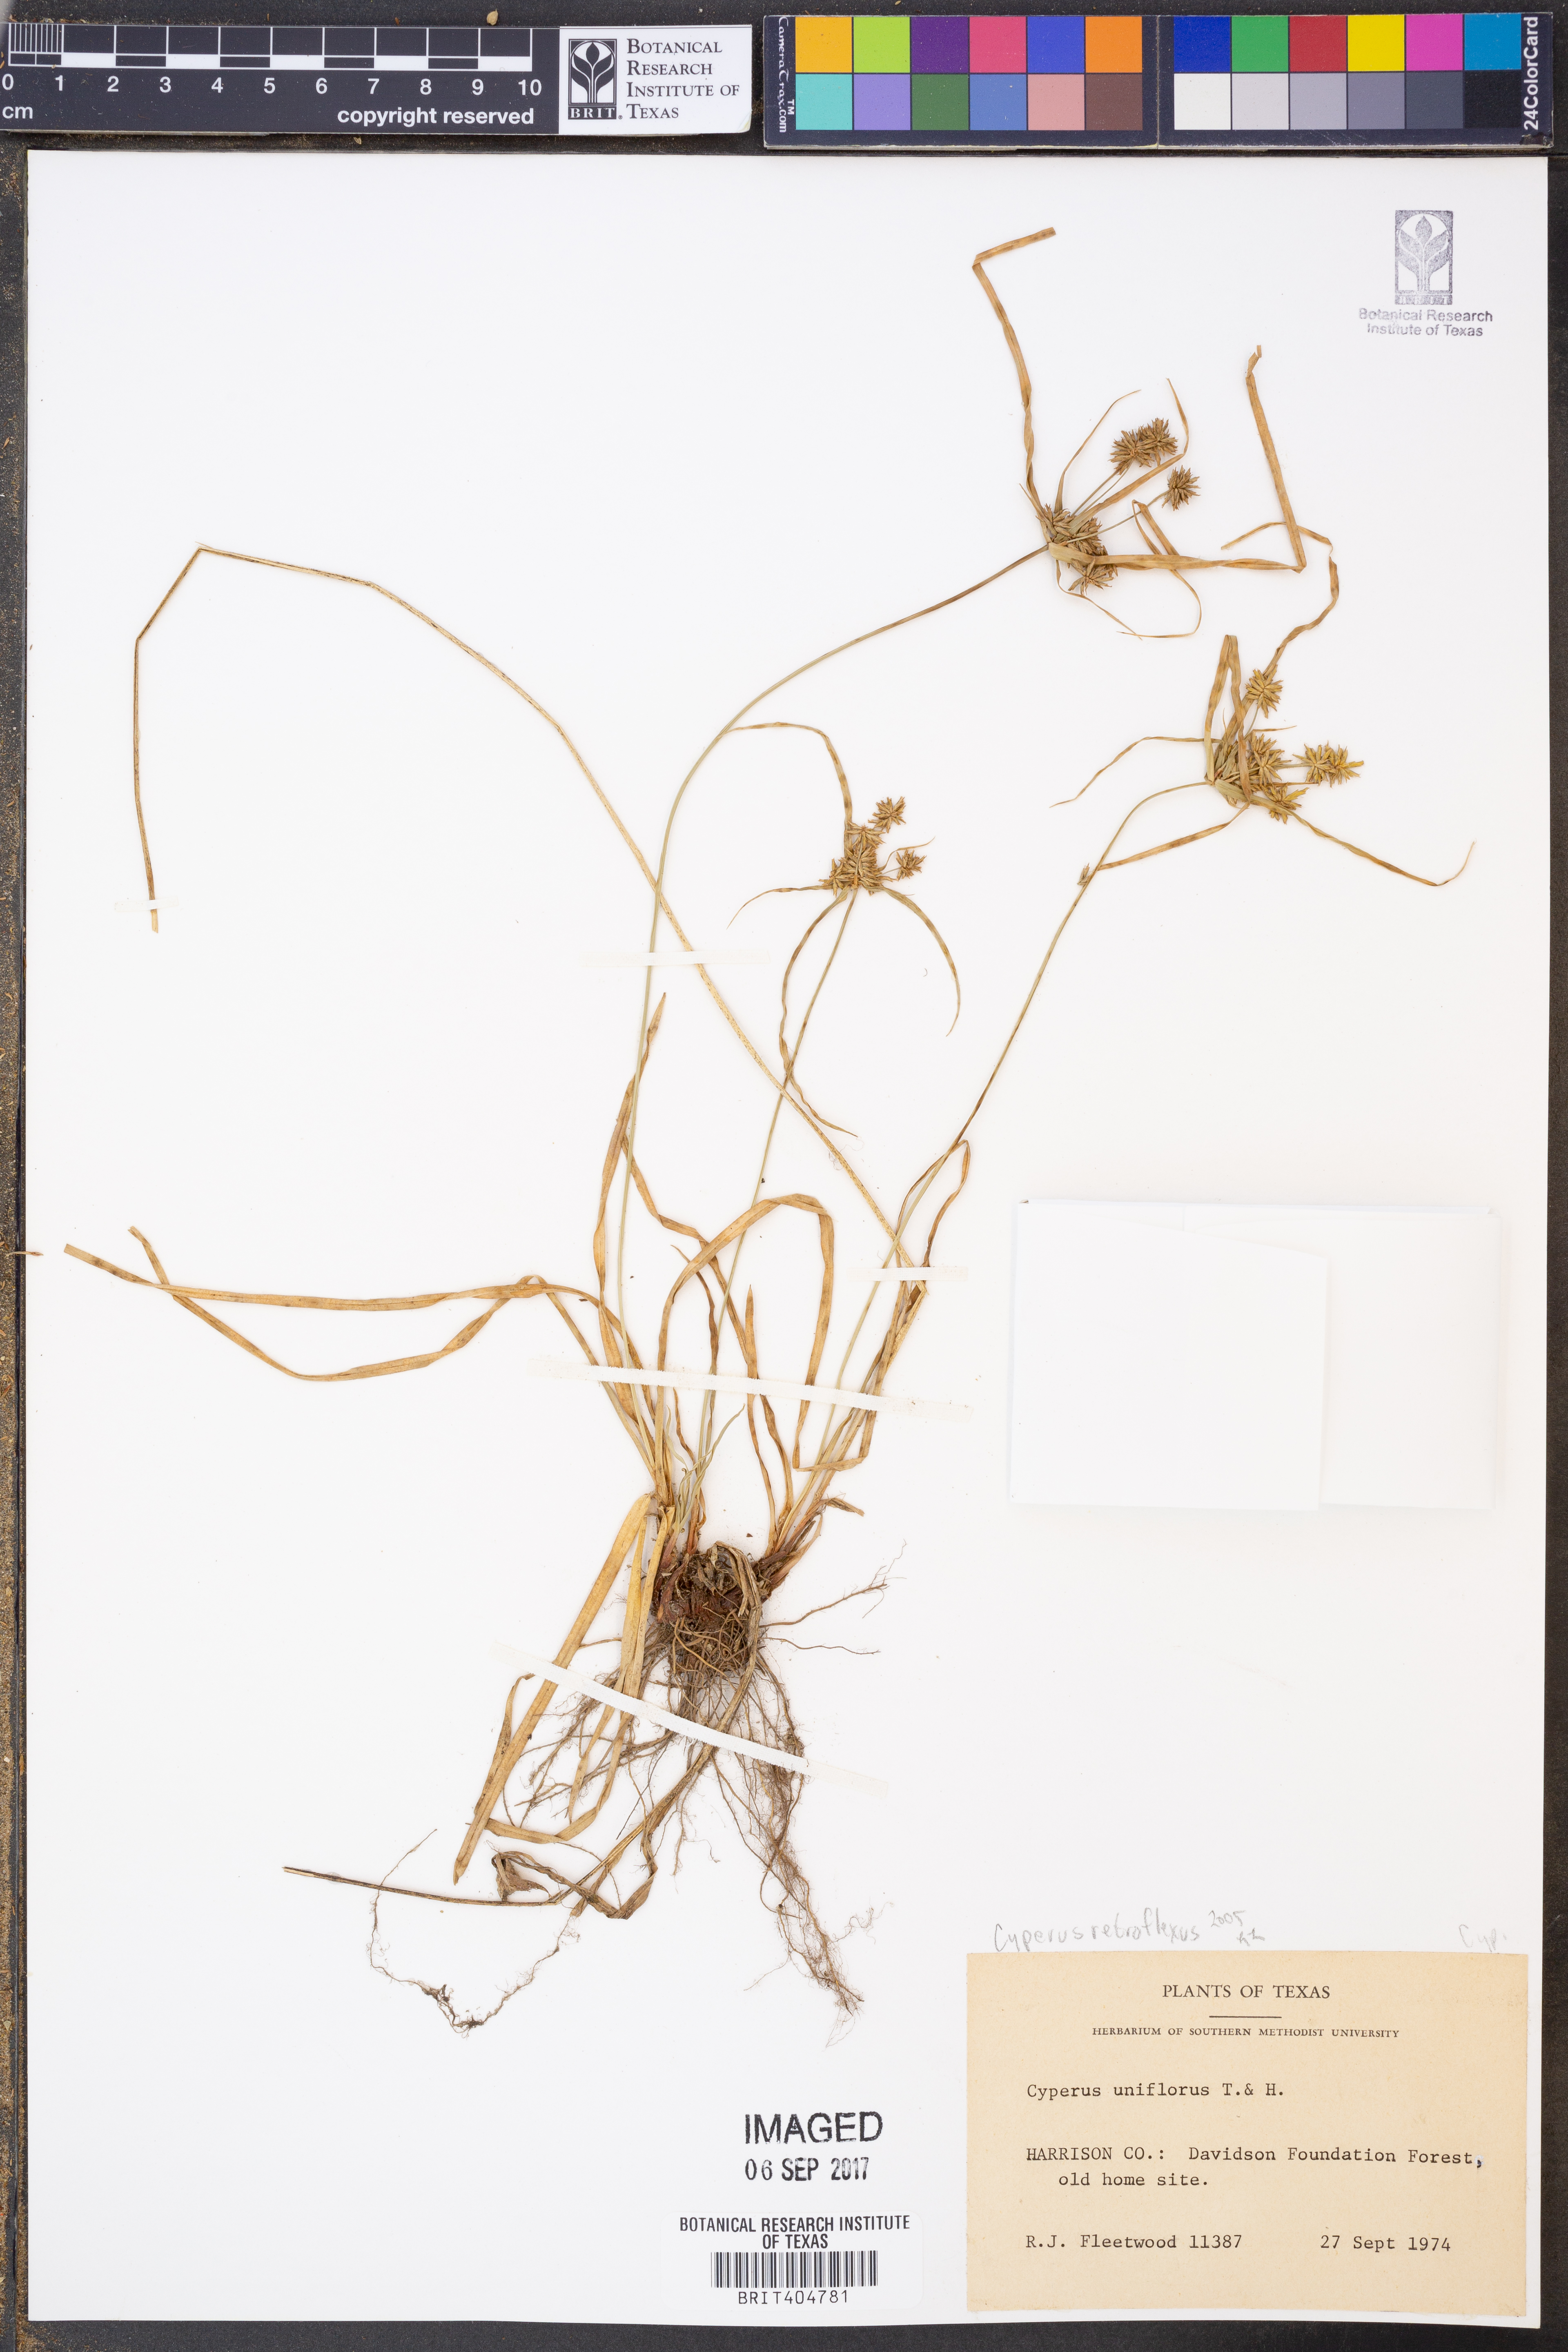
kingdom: Plantae
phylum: Tracheophyta
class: Liliopsida
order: Poales
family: Cyperaceae
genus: Cyperus
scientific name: Cyperus retroflexus
